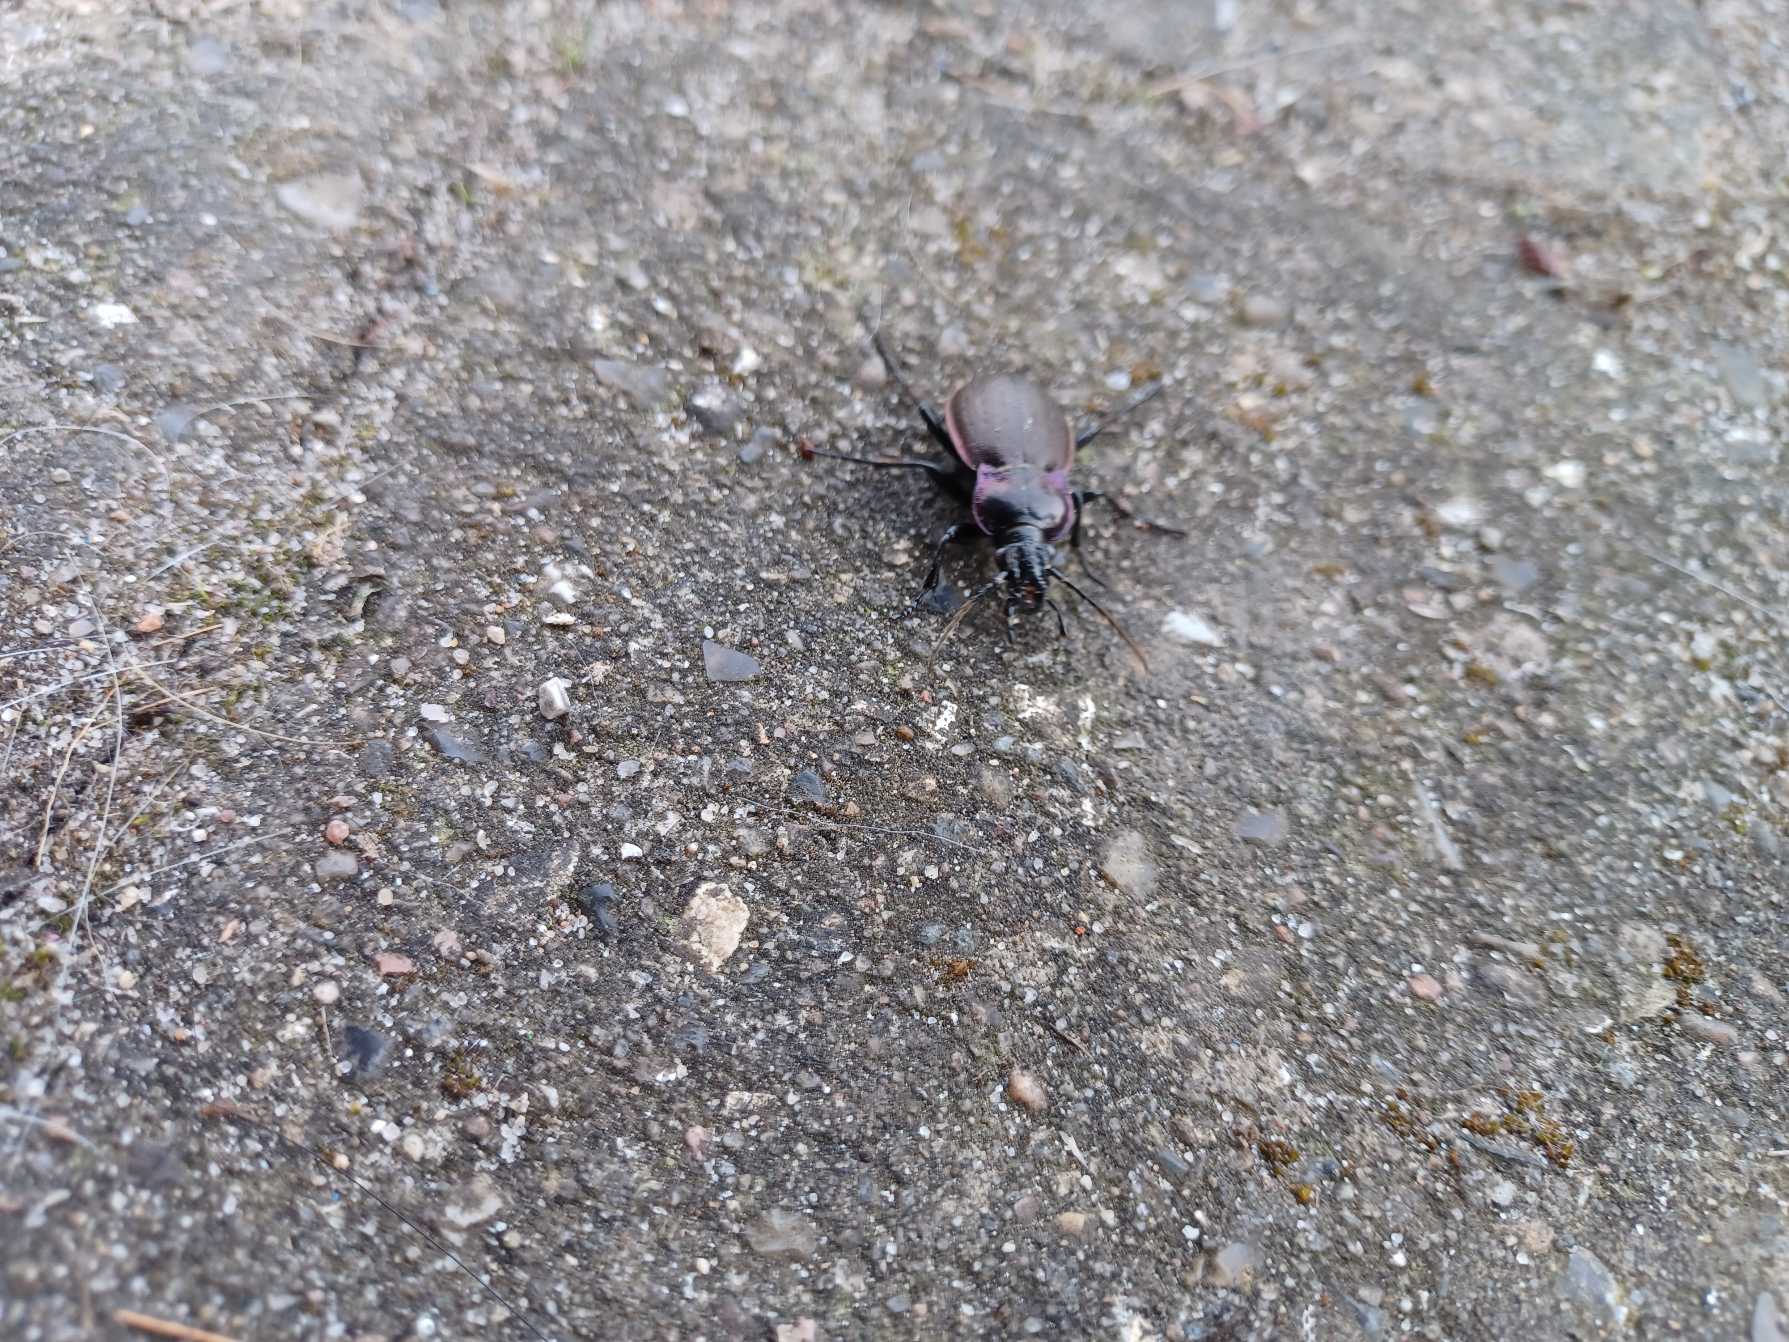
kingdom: Animalia
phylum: Arthropoda
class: Insecta
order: Coleoptera
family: Carabidae
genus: Carabus
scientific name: Carabus nemoralis
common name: Kratløber
